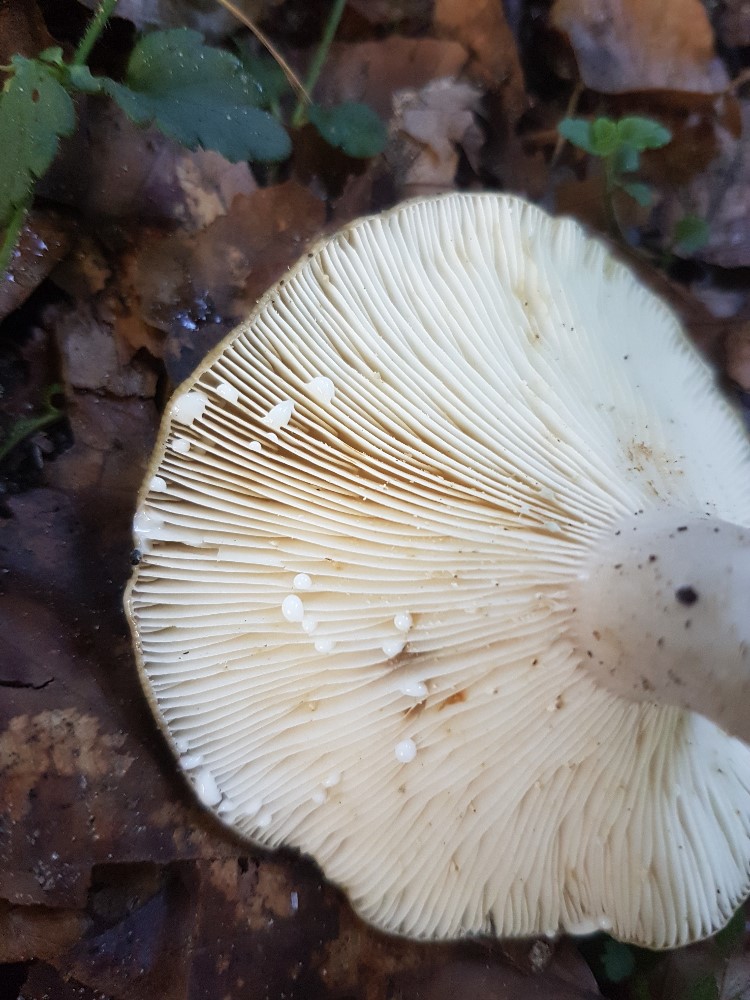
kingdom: Fungi
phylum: Basidiomycota
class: Agaricomycetes
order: Russulales
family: Russulaceae
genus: Lactarius
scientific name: Lactarius blennius
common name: dråbeplettet mælkehat
